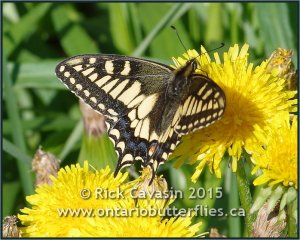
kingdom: Animalia
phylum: Arthropoda
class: Insecta
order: Lepidoptera
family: Papilionidae
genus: Papilio
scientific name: Papilio machaon
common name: Old World Swallowtail
